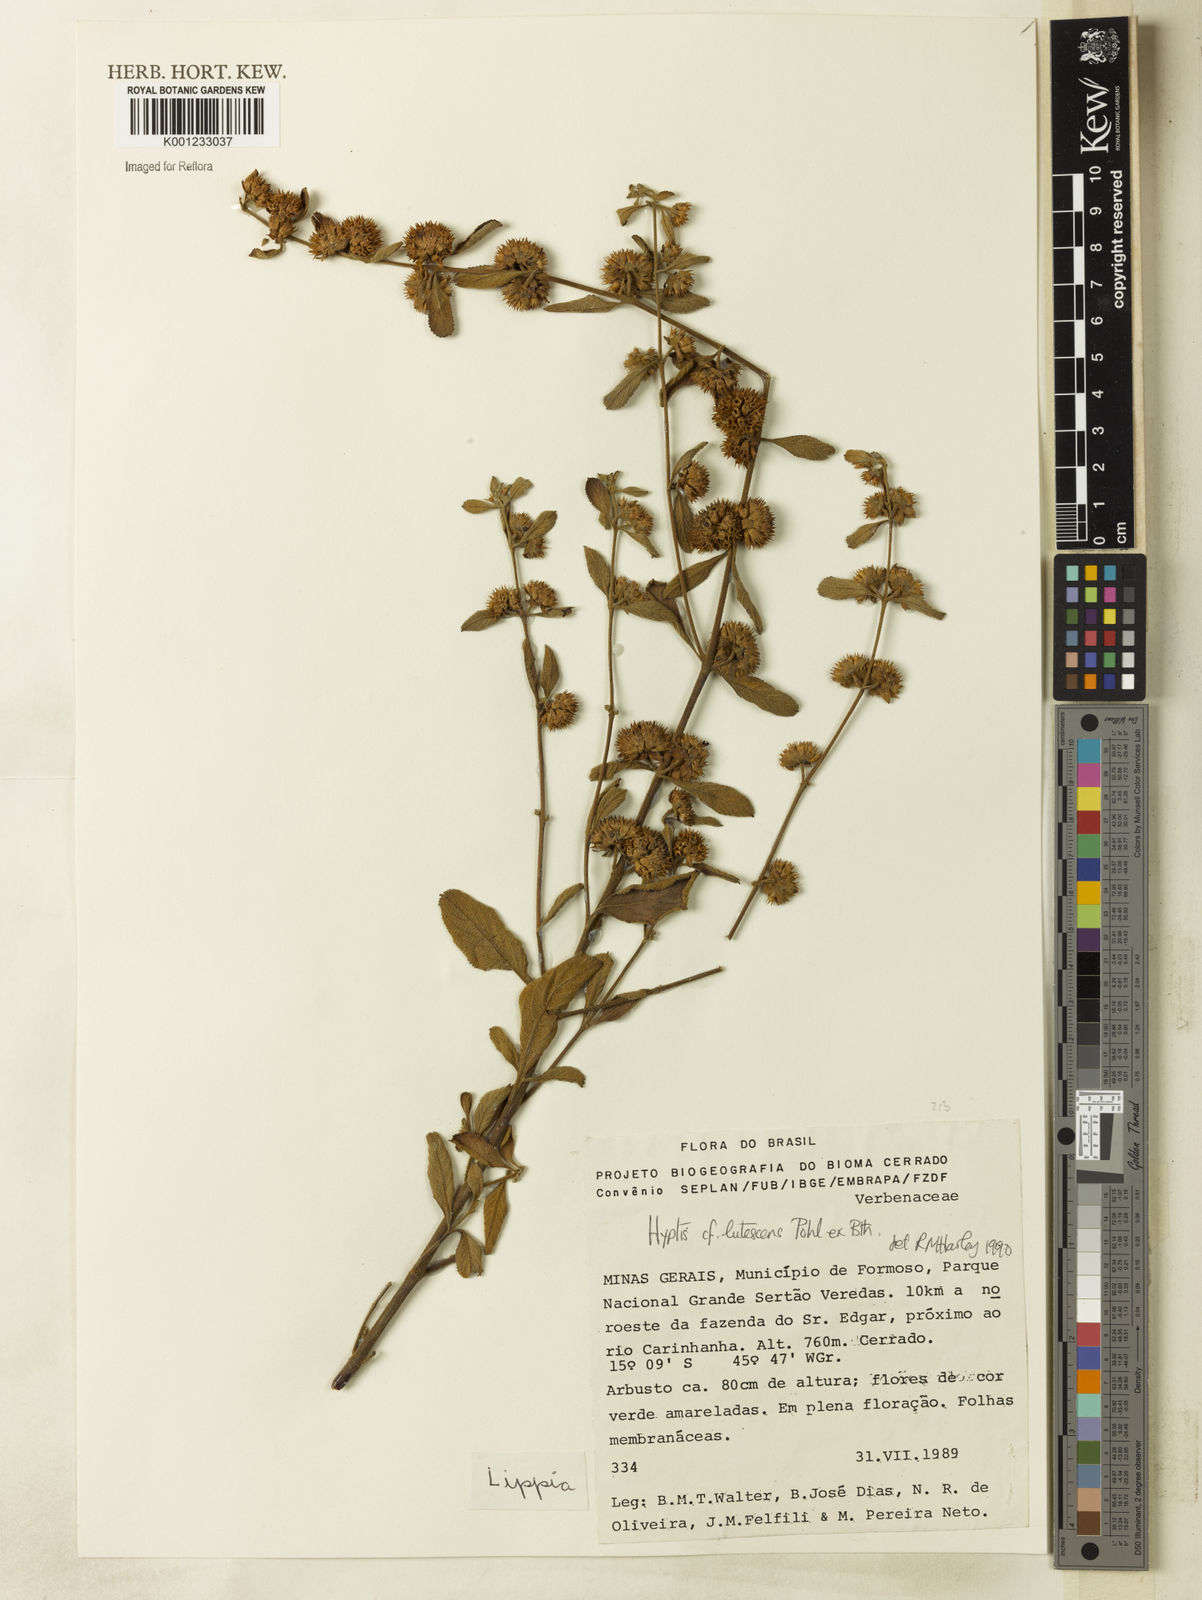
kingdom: Plantae
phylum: Tracheophyta
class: Magnoliopsida
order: Lamiales
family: Lamiaceae
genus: Hyptis
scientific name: Hyptis lutescens
